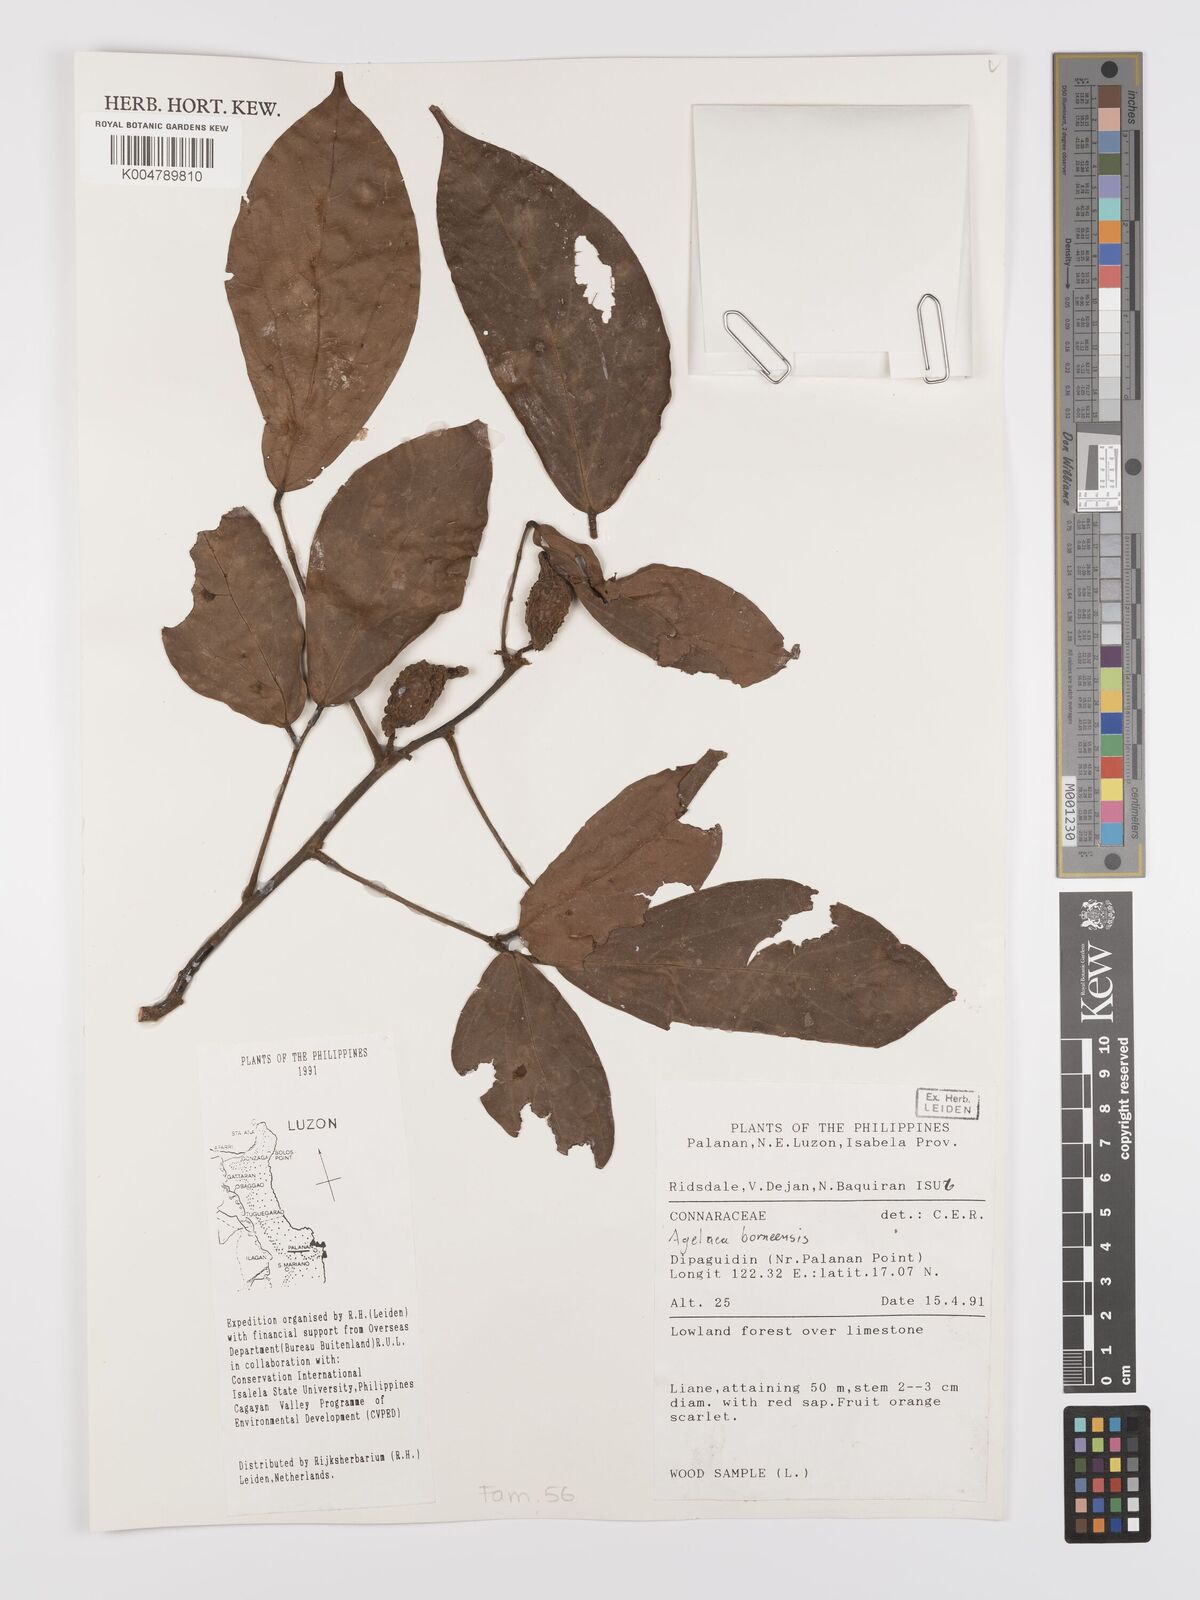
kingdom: Plantae
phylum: Tracheophyta
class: Magnoliopsida
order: Oxalidales
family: Connaraceae
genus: Agelaea
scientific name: Agelaea borneensis
